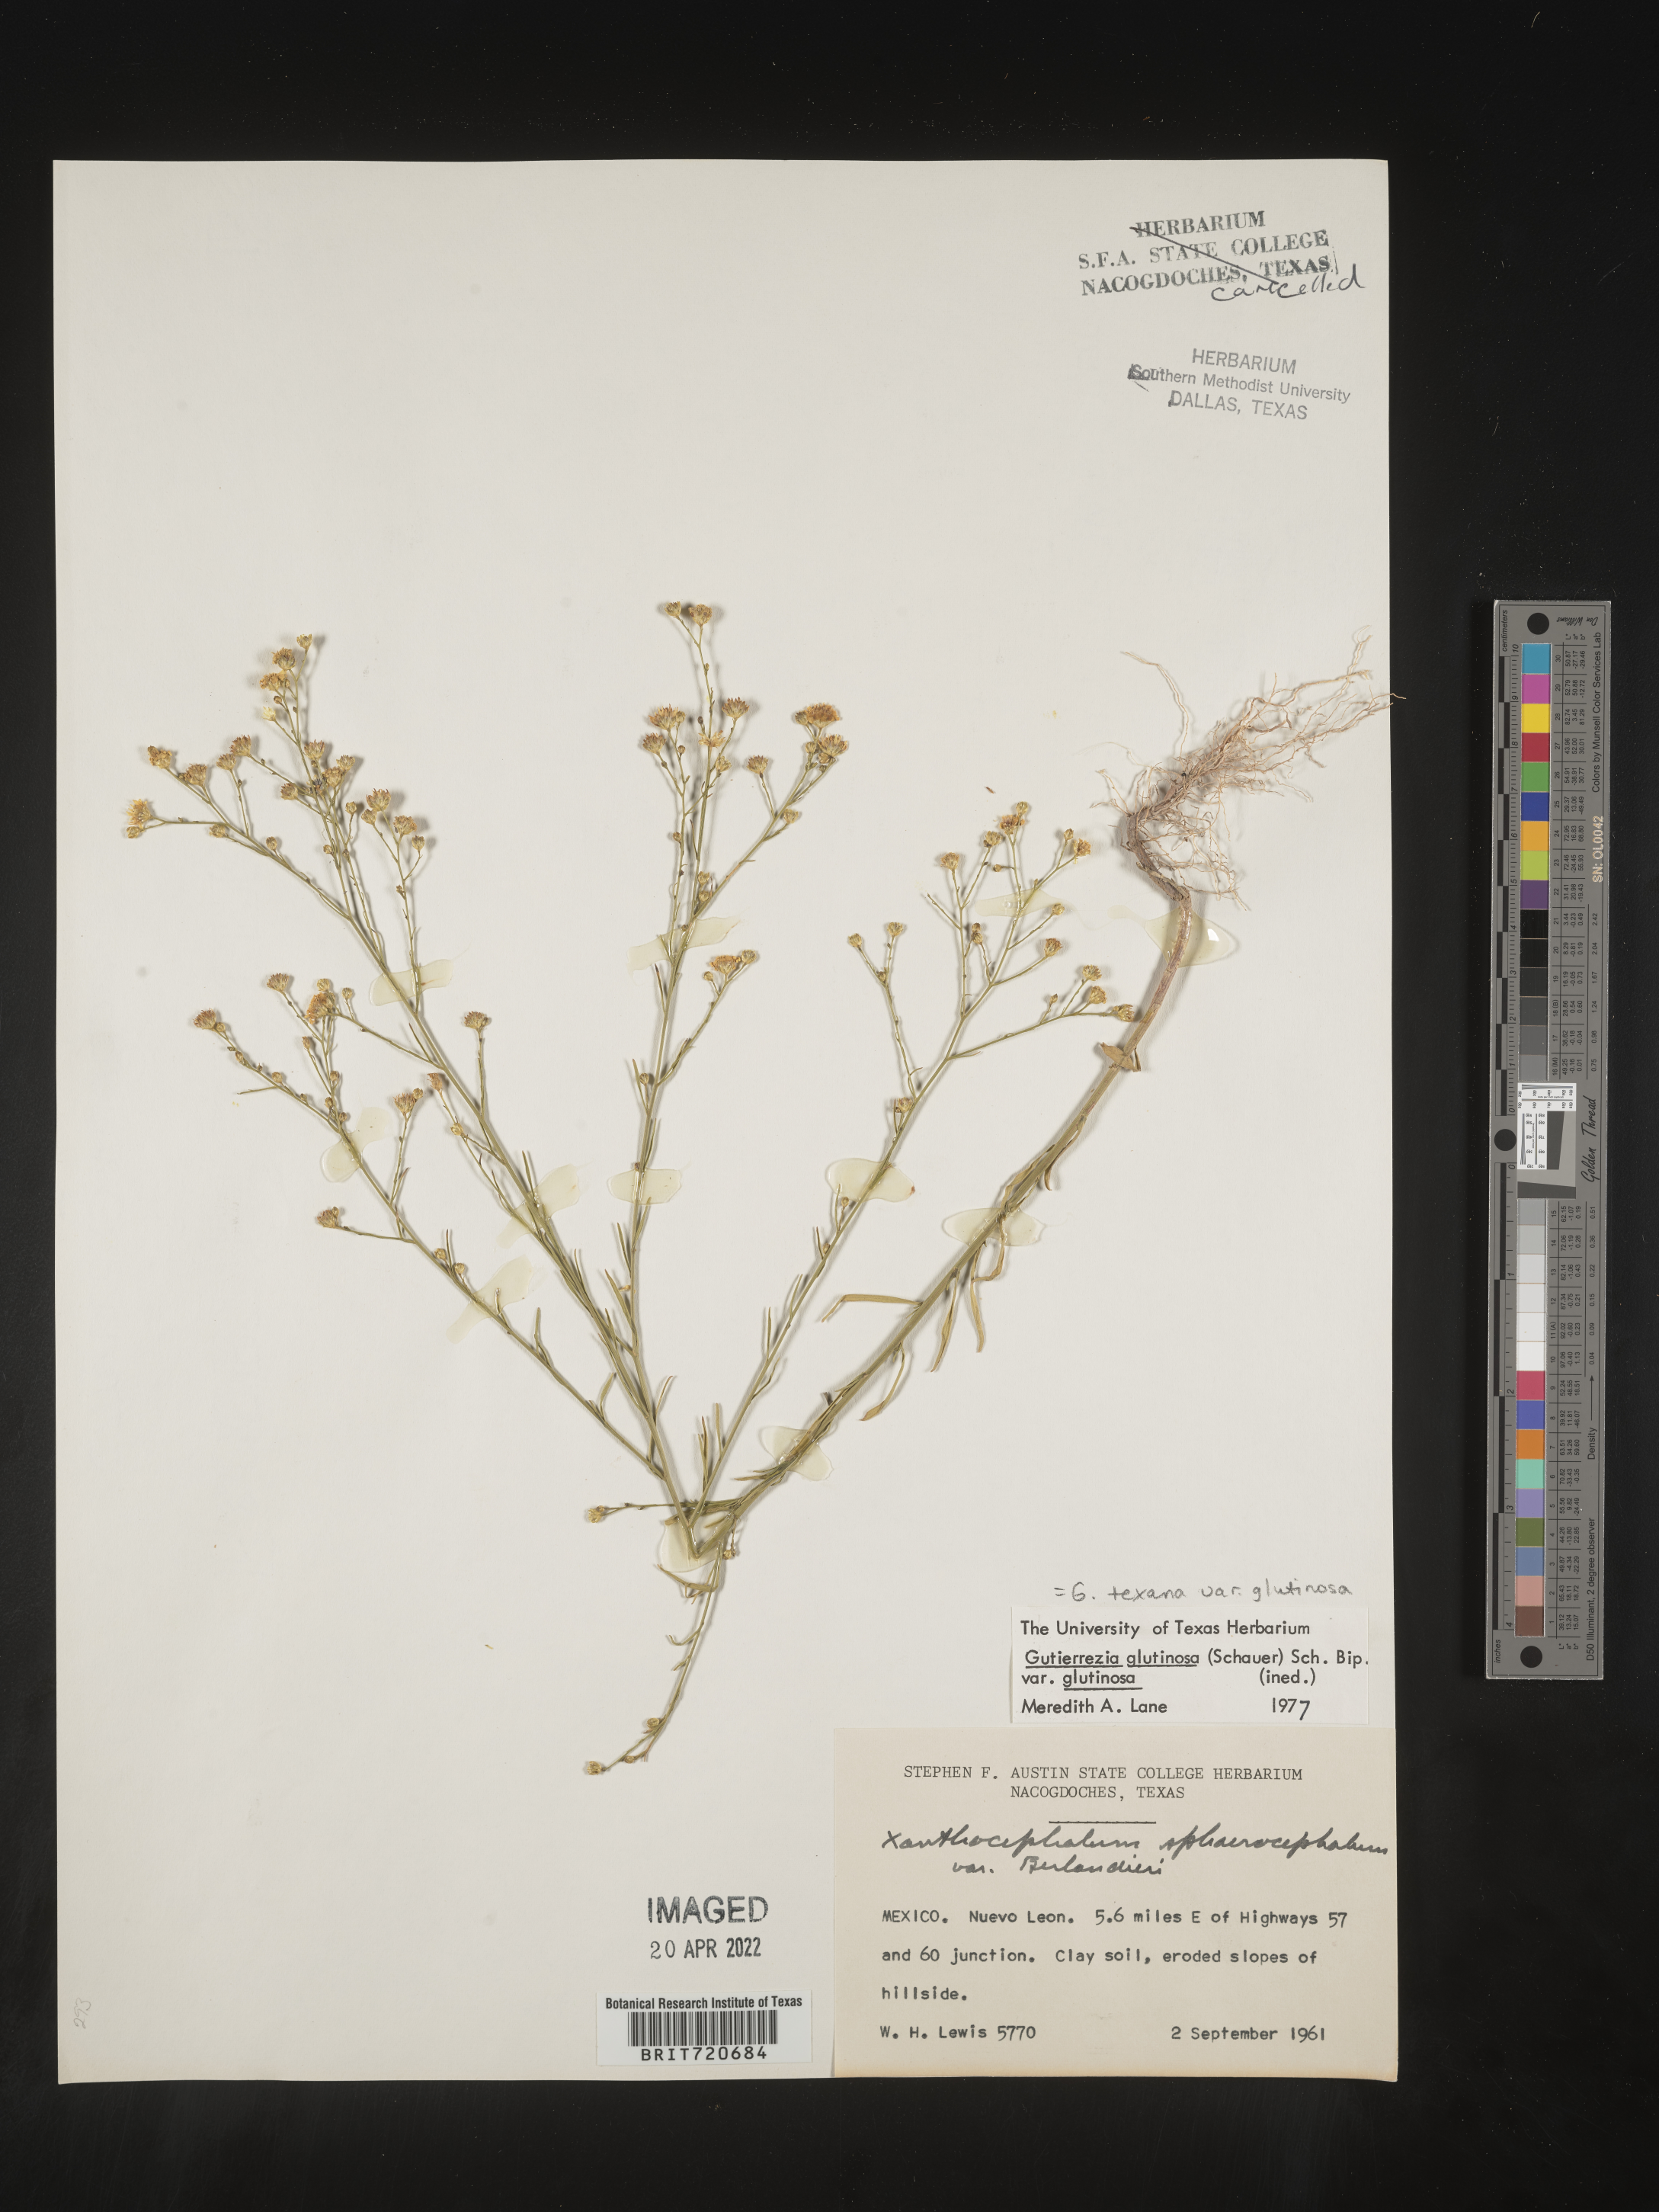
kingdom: Plantae
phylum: Tracheophyta
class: Magnoliopsida
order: Asterales
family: Asteraceae
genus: Gutierrezia
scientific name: Gutierrezia texana
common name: Texas snakeweed
